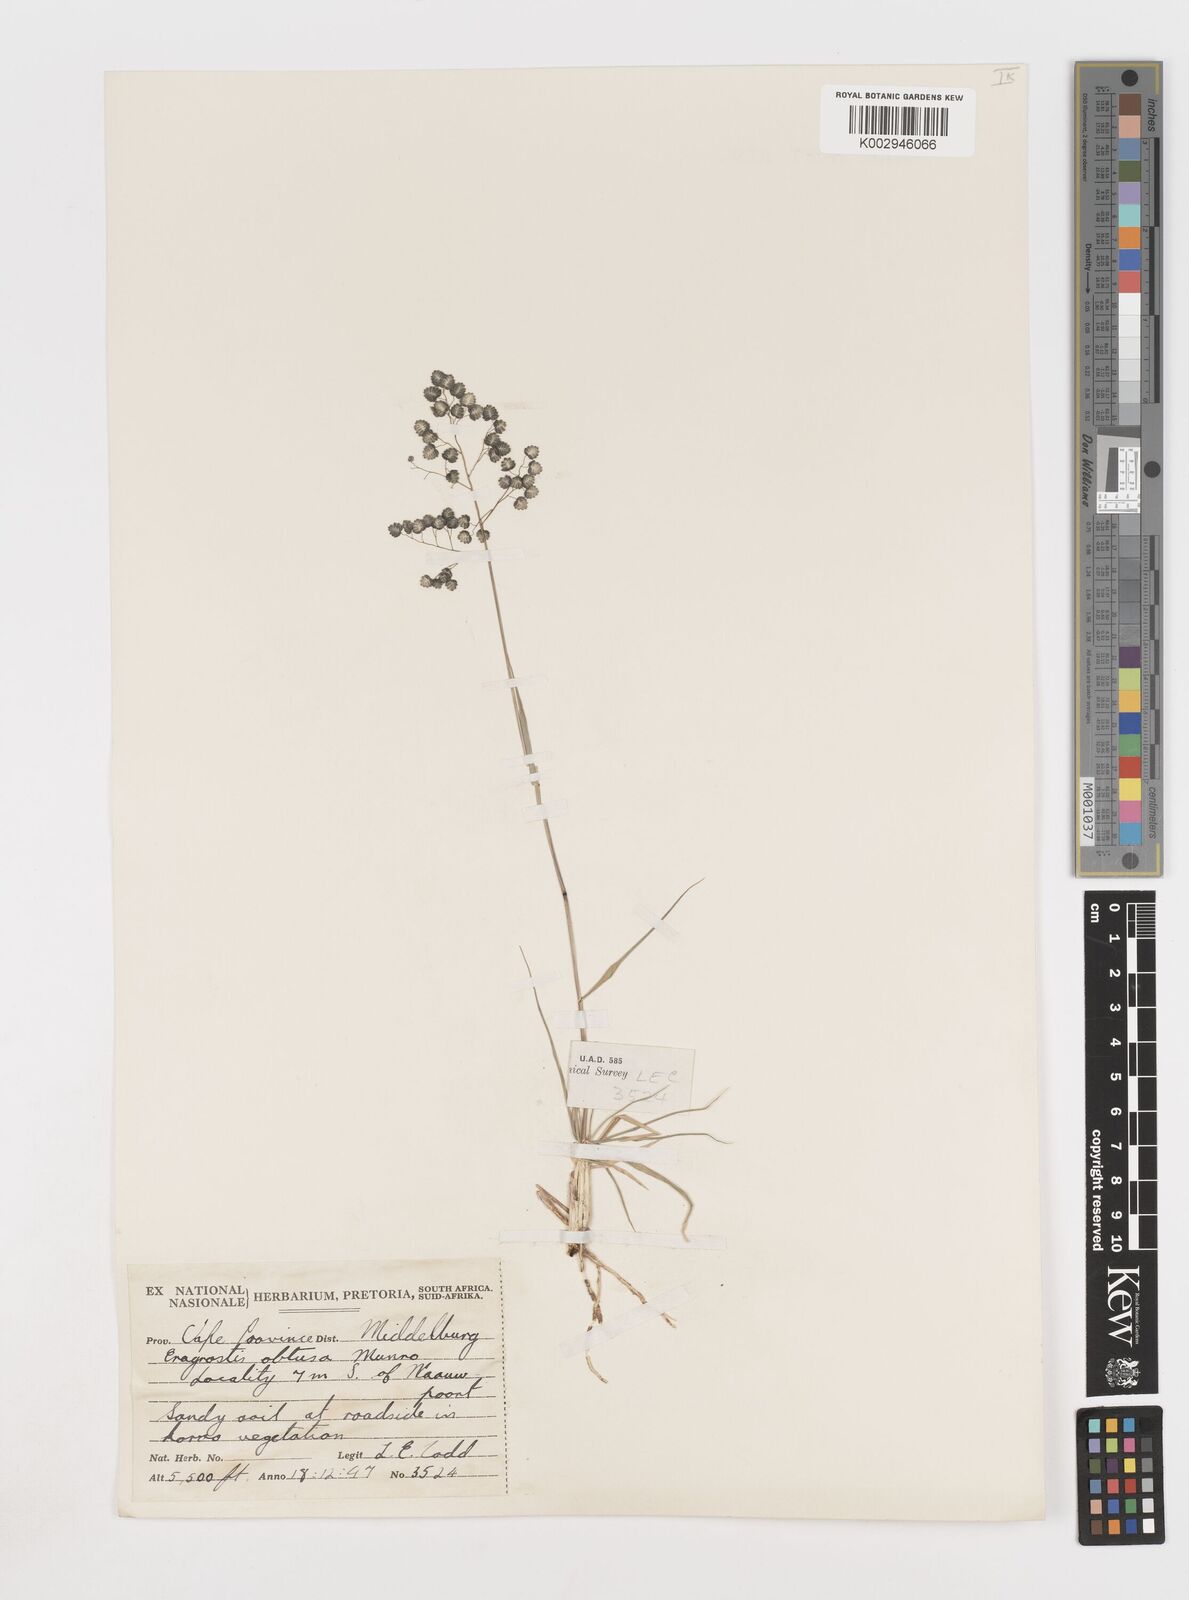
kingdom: Plantae
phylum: Tracheophyta
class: Liliopsida
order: Poales
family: Poaceae
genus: Eragrostis
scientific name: Eragrostis obtusa
